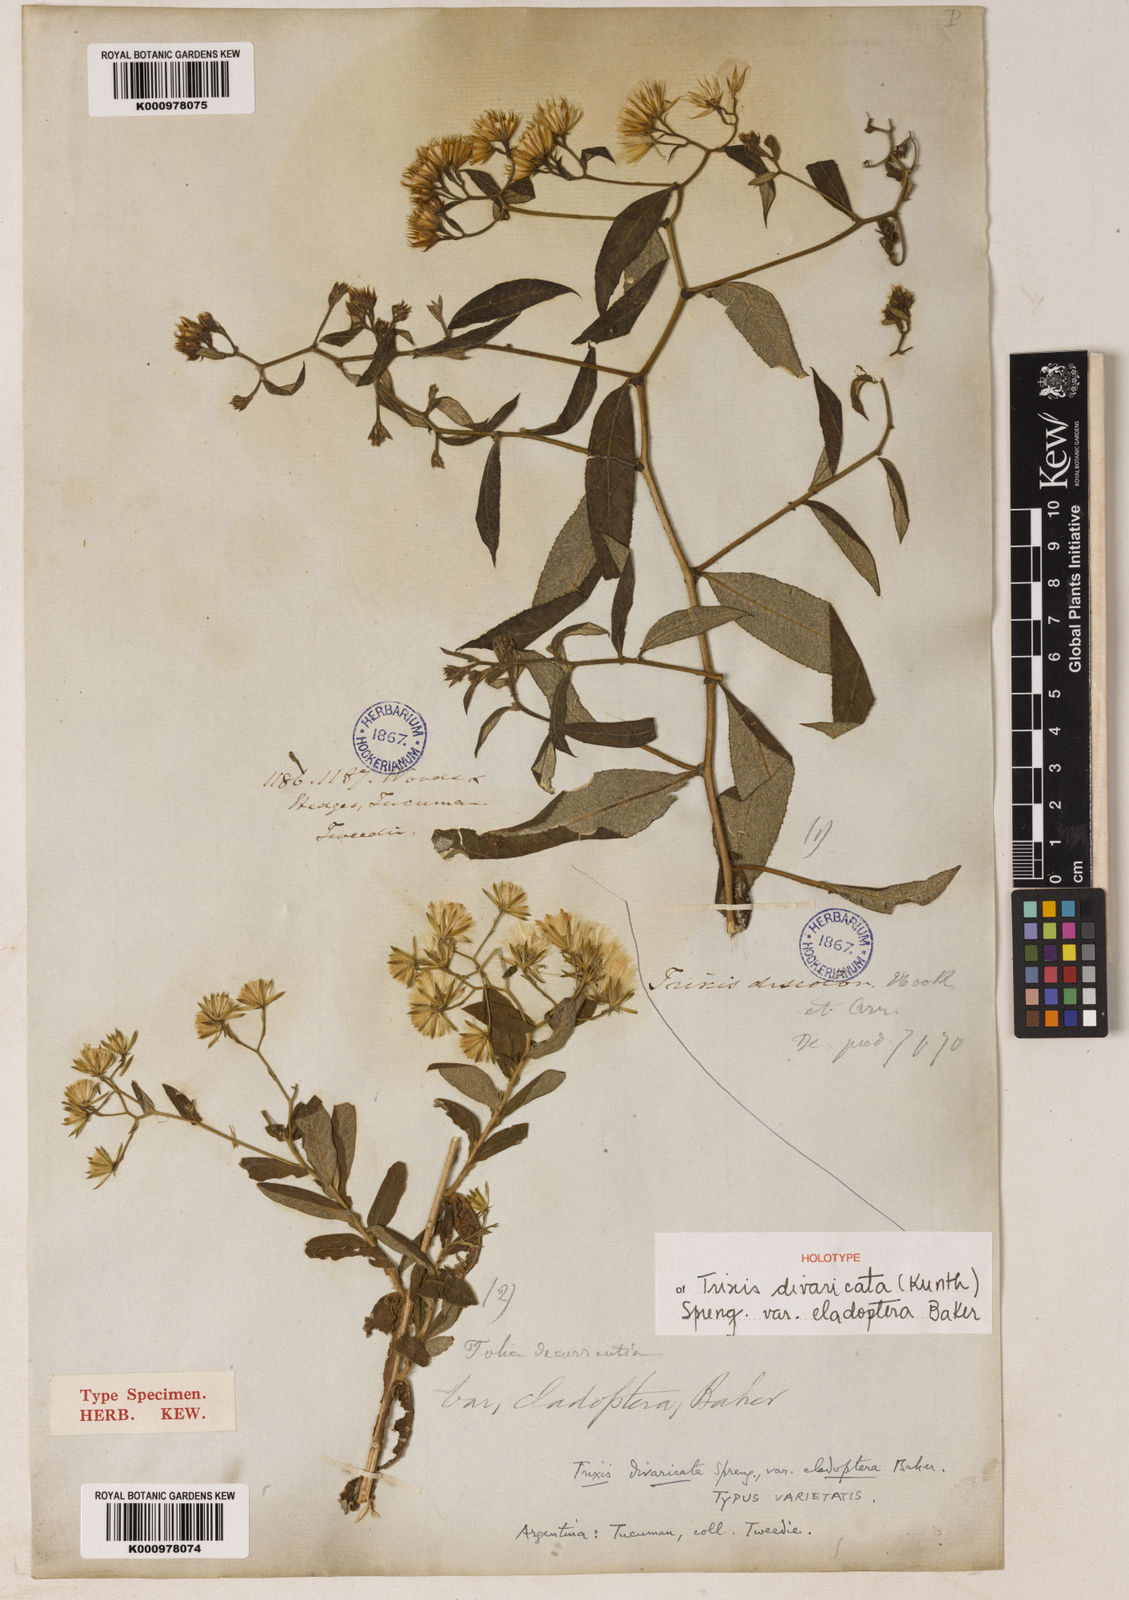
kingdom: Plantae
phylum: Tracheophyta
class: Magnoliopsida
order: Asterales
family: Asteraceae
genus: Trixis
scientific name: Trixis divaricata
